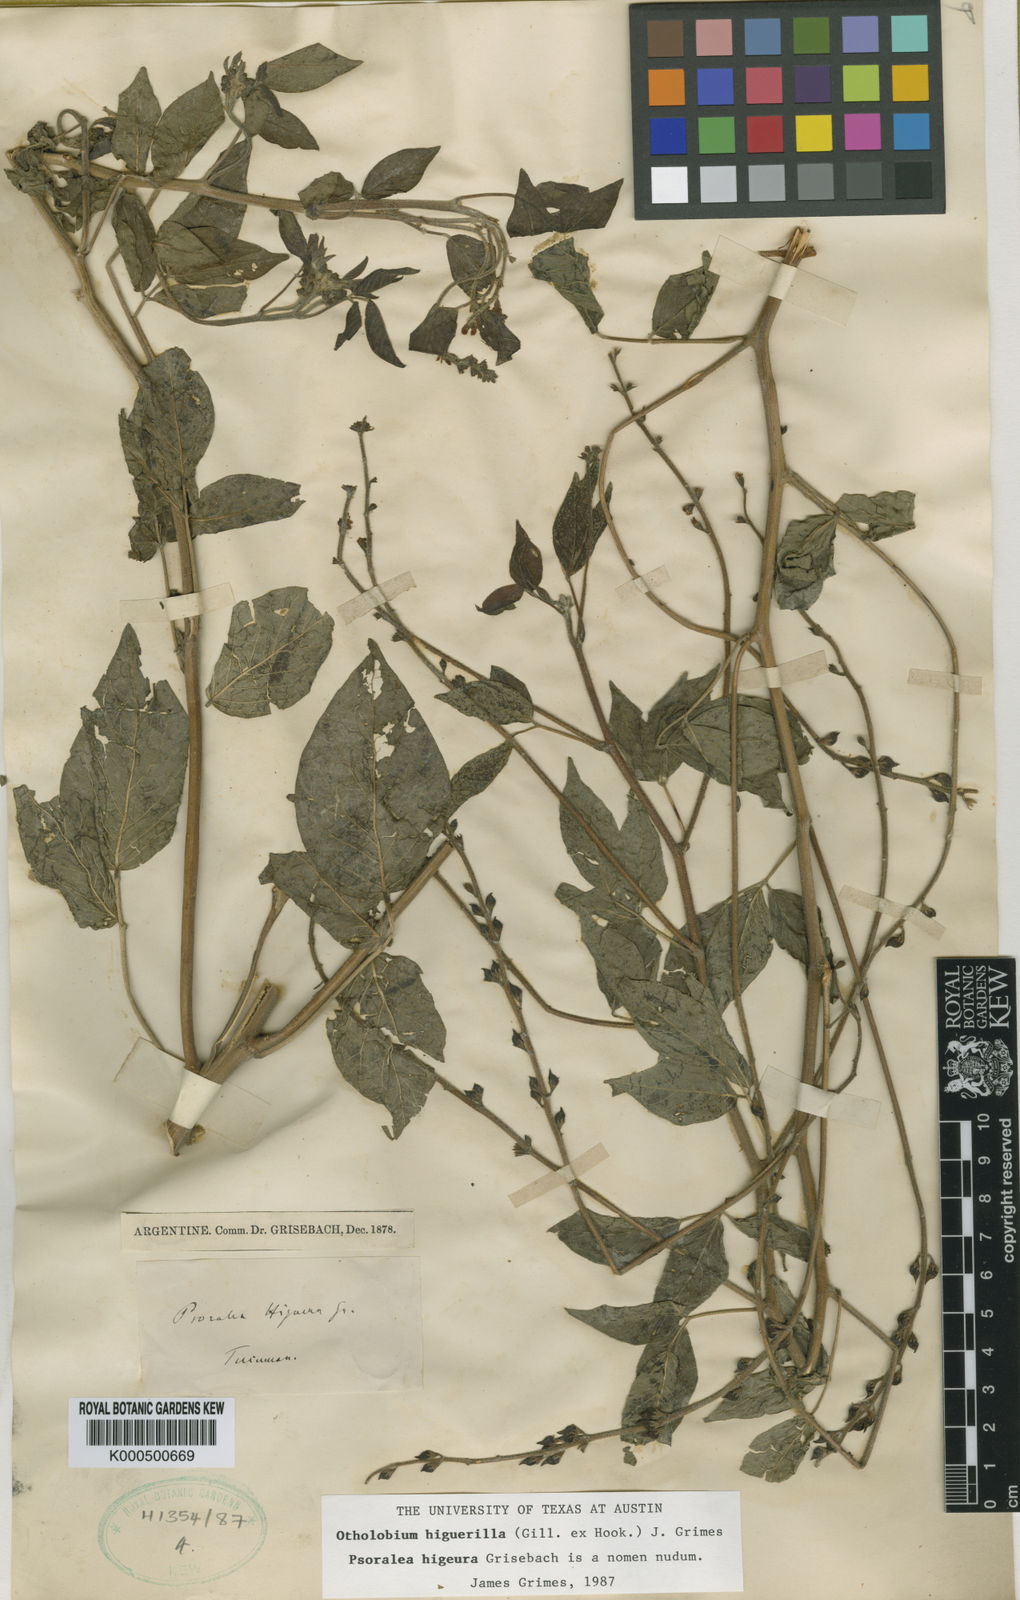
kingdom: Plantae
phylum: Tracheophyta
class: Magnoliopsida
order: Fabales
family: Fabaceae
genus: Psoralea
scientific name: Psoralea Otholobium higuerilla
